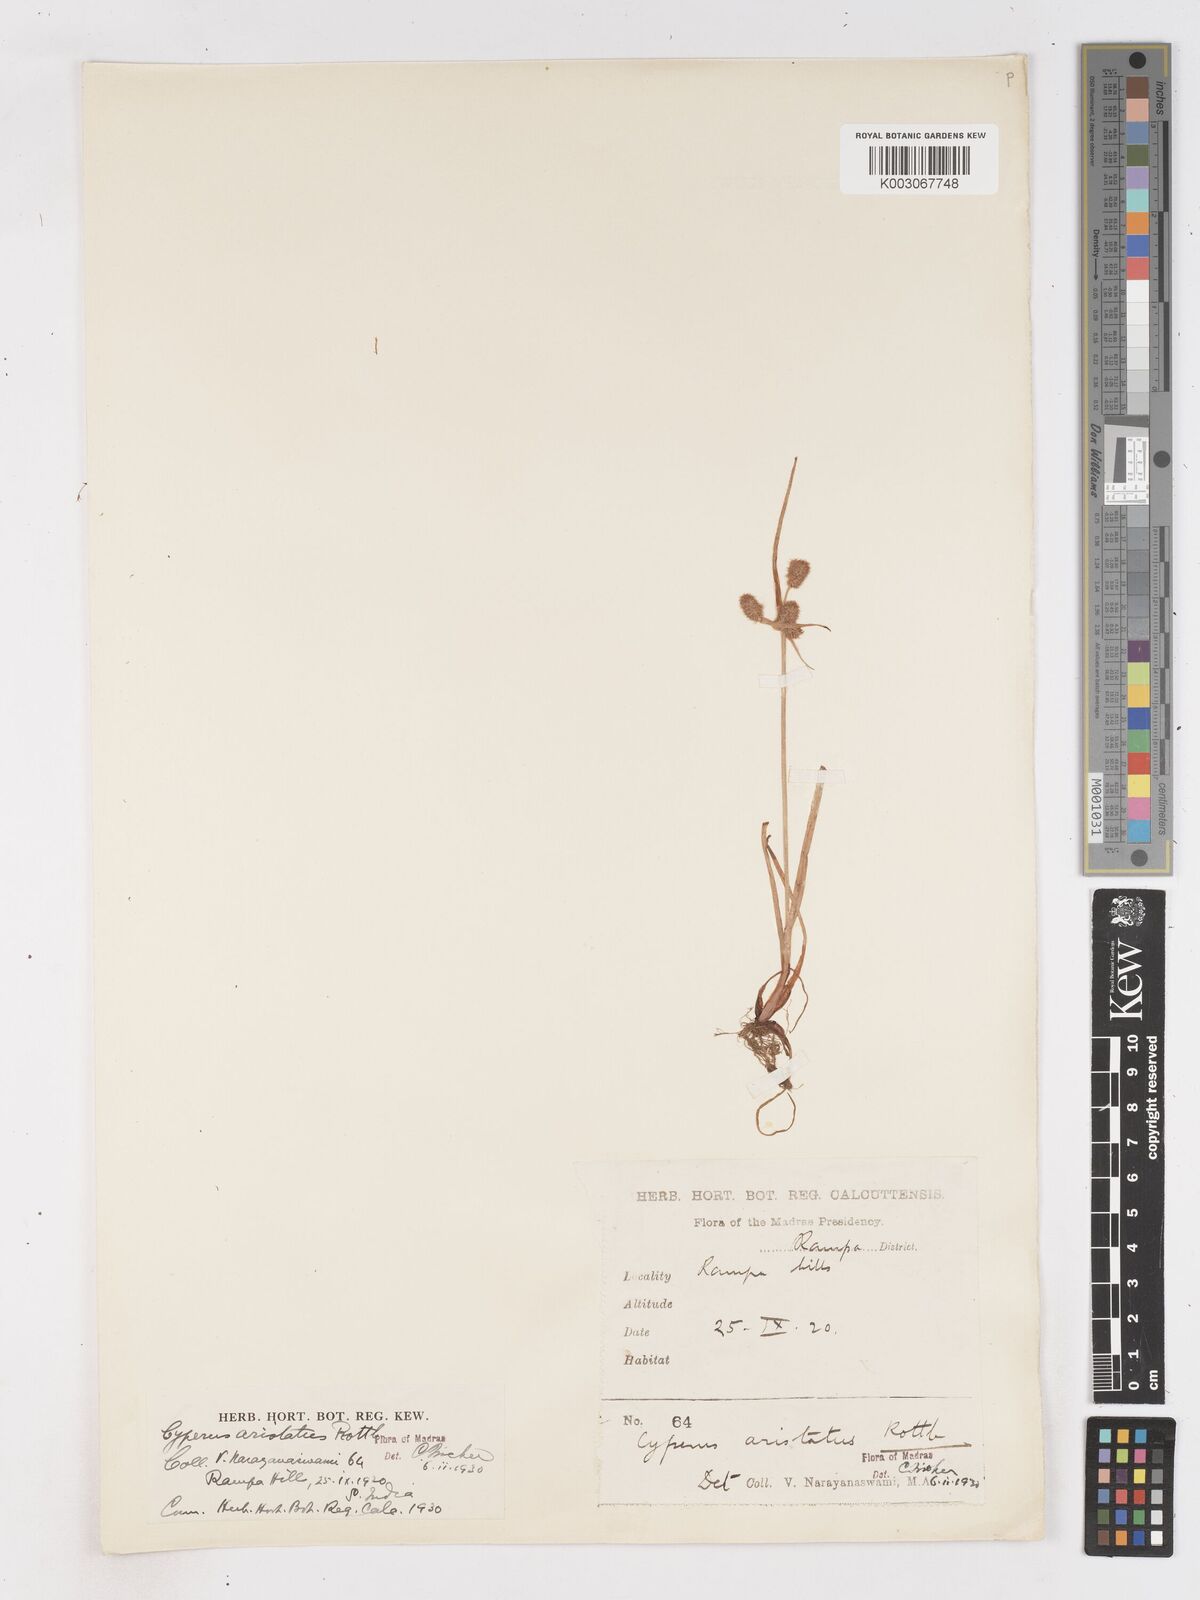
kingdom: Plantae
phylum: Tracheophyta
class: Liliopsida
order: Poales
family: Cyperaceae
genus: Cyperus
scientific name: Cyperus squarrosus
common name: Awned cyperus
